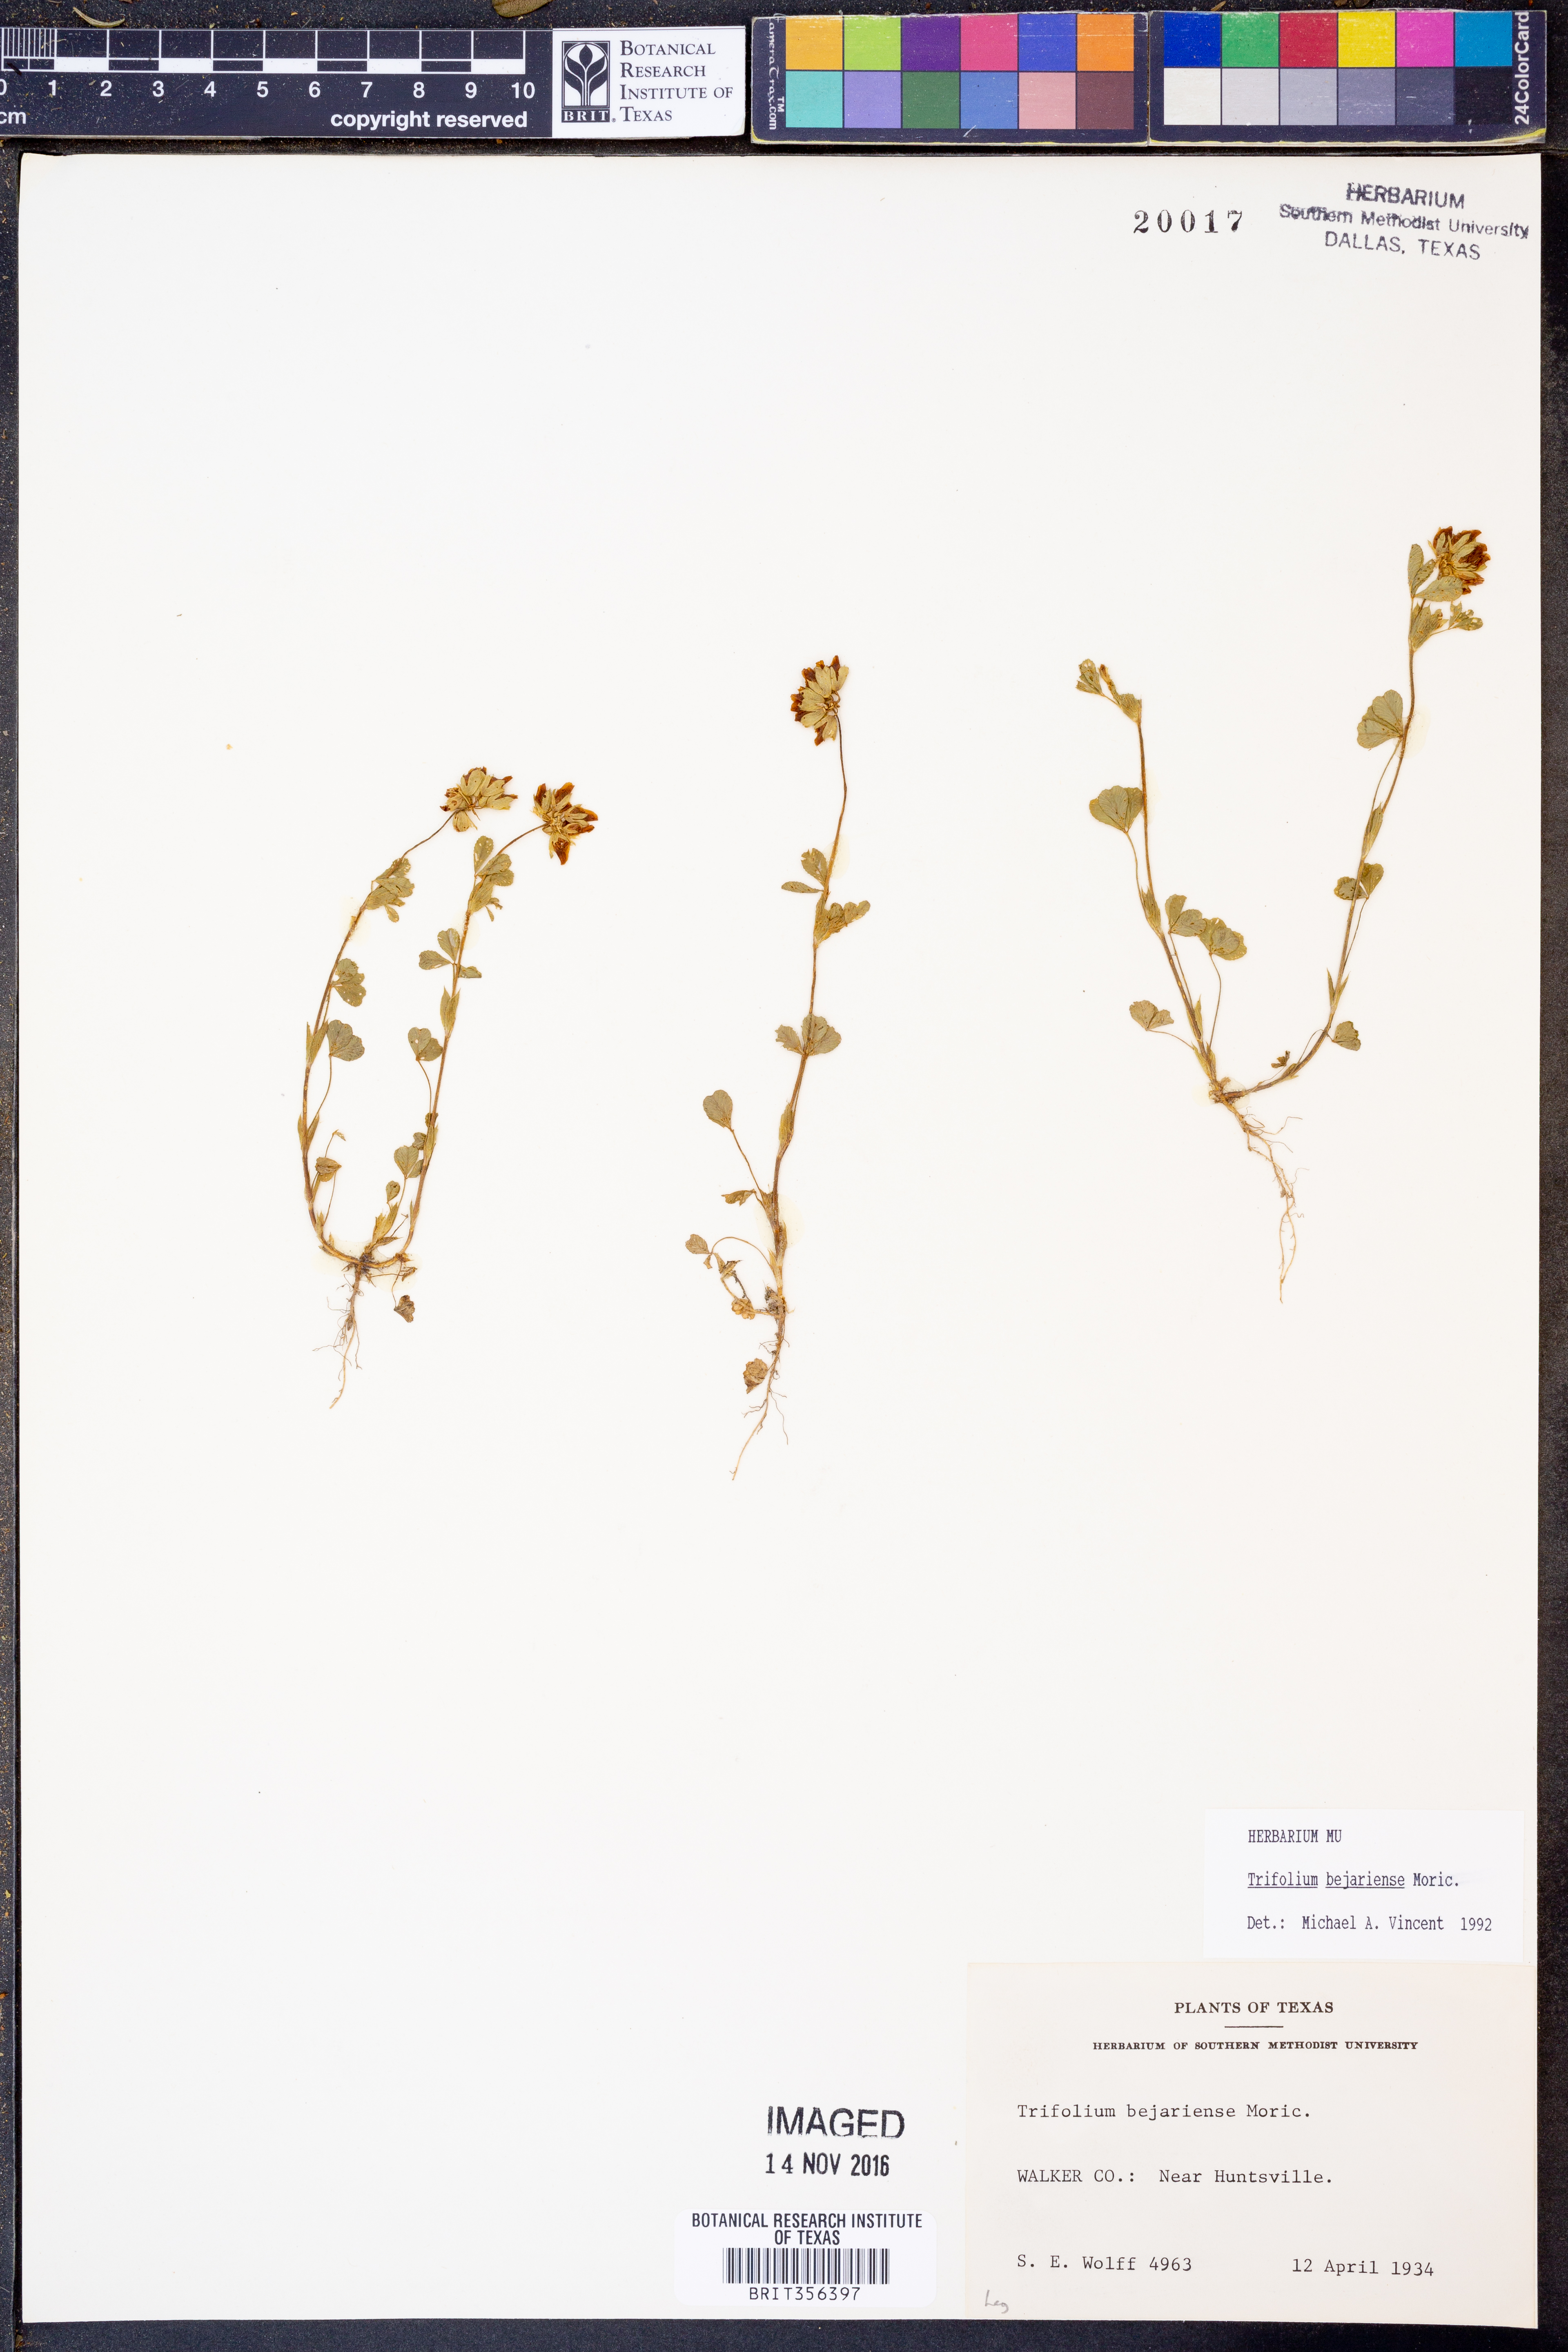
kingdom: Plantae
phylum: Tracheophyta
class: Magnoliopsida
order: Fabales
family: Fabaceae
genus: Trifolium
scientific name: Trifolium bejariense
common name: Bejar clover
